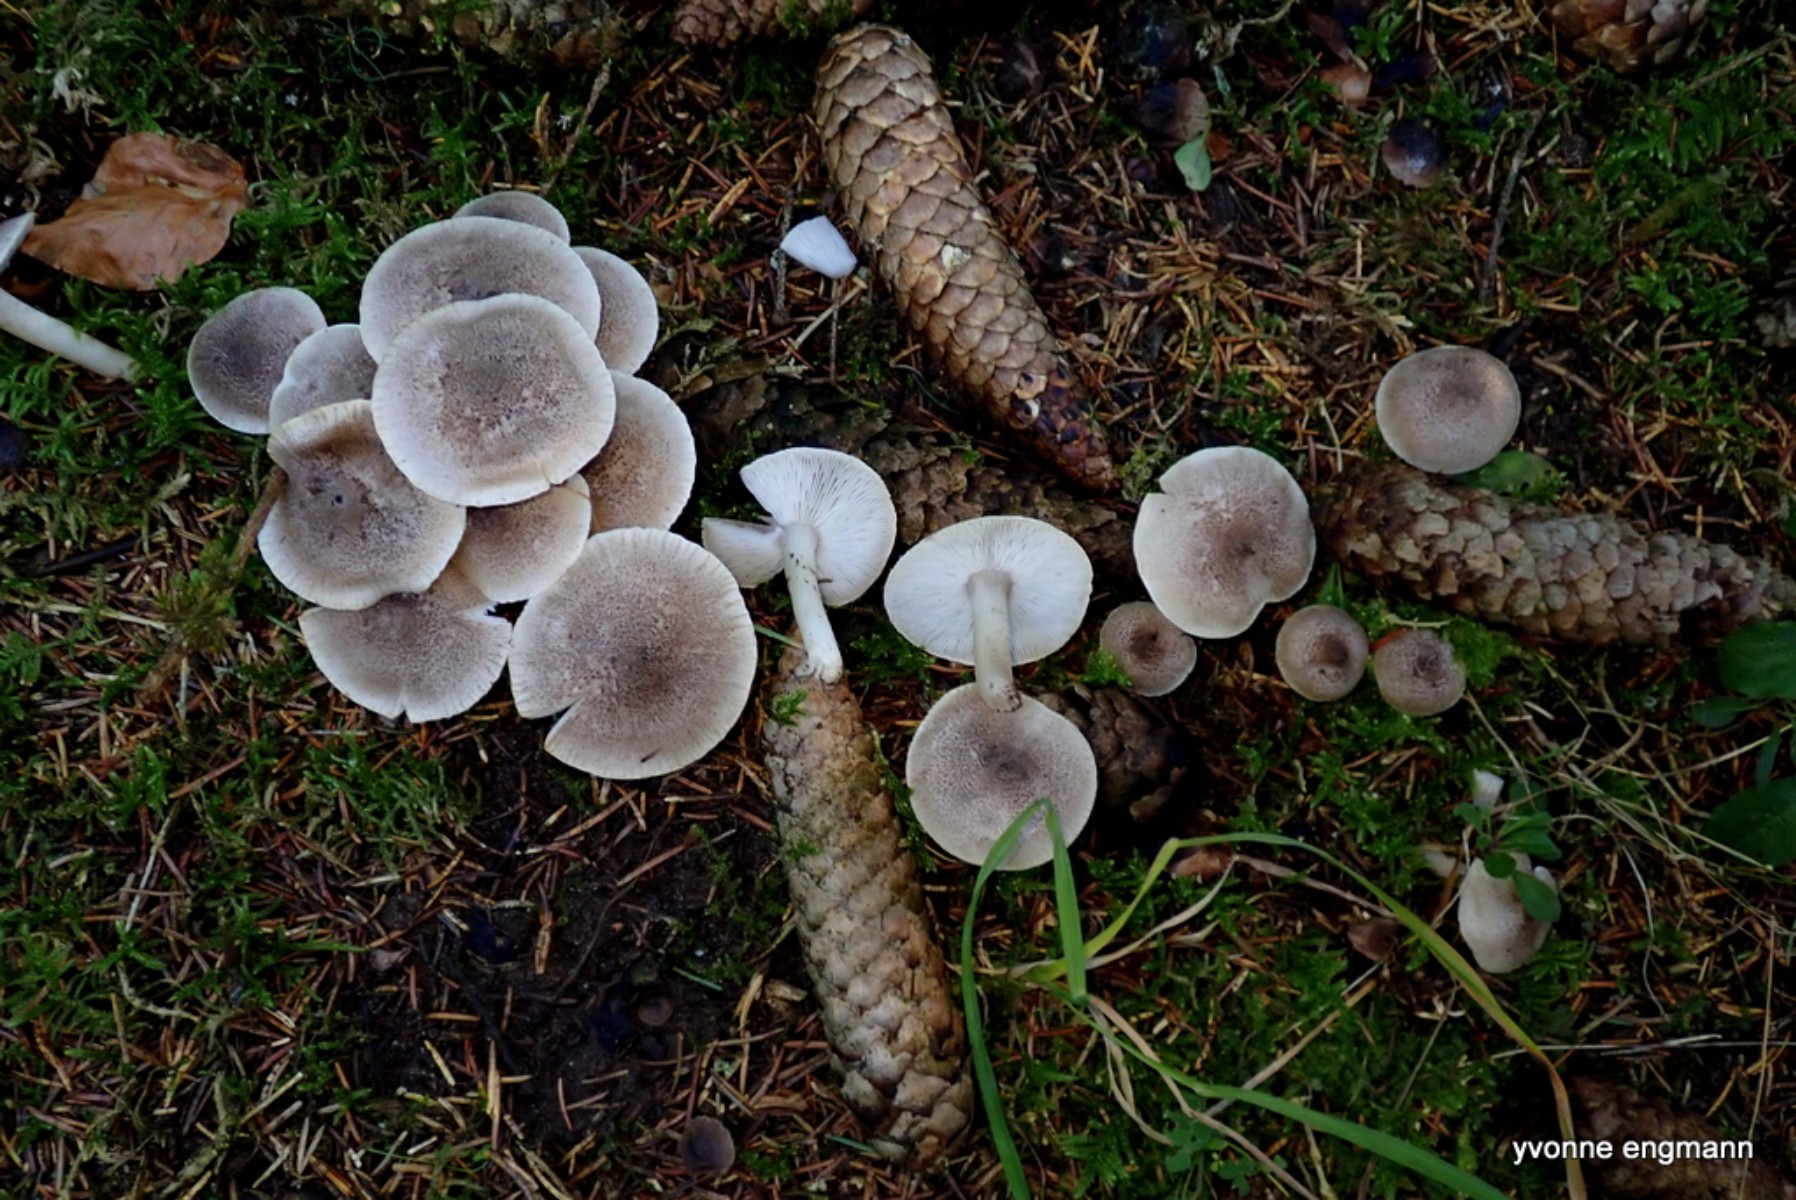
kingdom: Fungi
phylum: Basidiomycota
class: Agaricomycetes
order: Agaricales
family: Tricholomataceae
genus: Tricholoma
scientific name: Tricholoma scalpturatum
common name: gulplettet ridderhat
